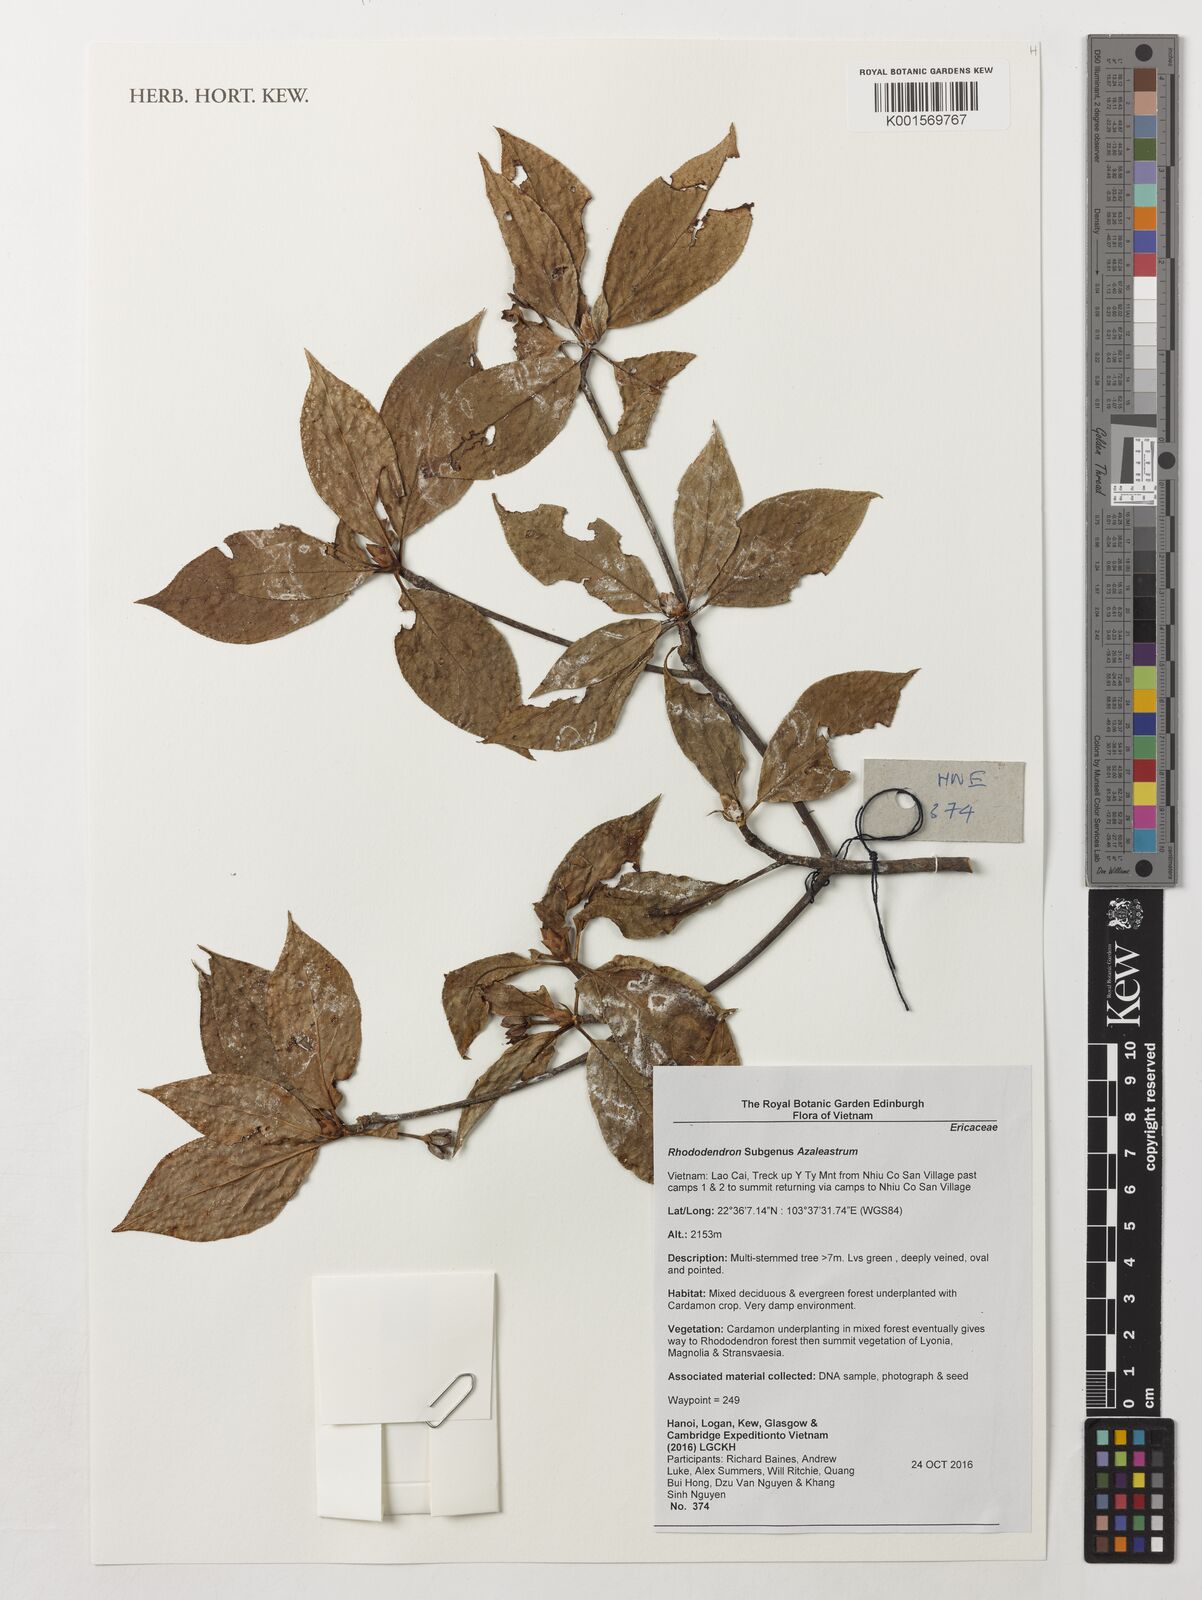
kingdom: Plantae
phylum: Tracheophyta
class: Magnoliopsida
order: Ericales
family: Ericaceae
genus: Rhododendron
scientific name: Rhododendron
